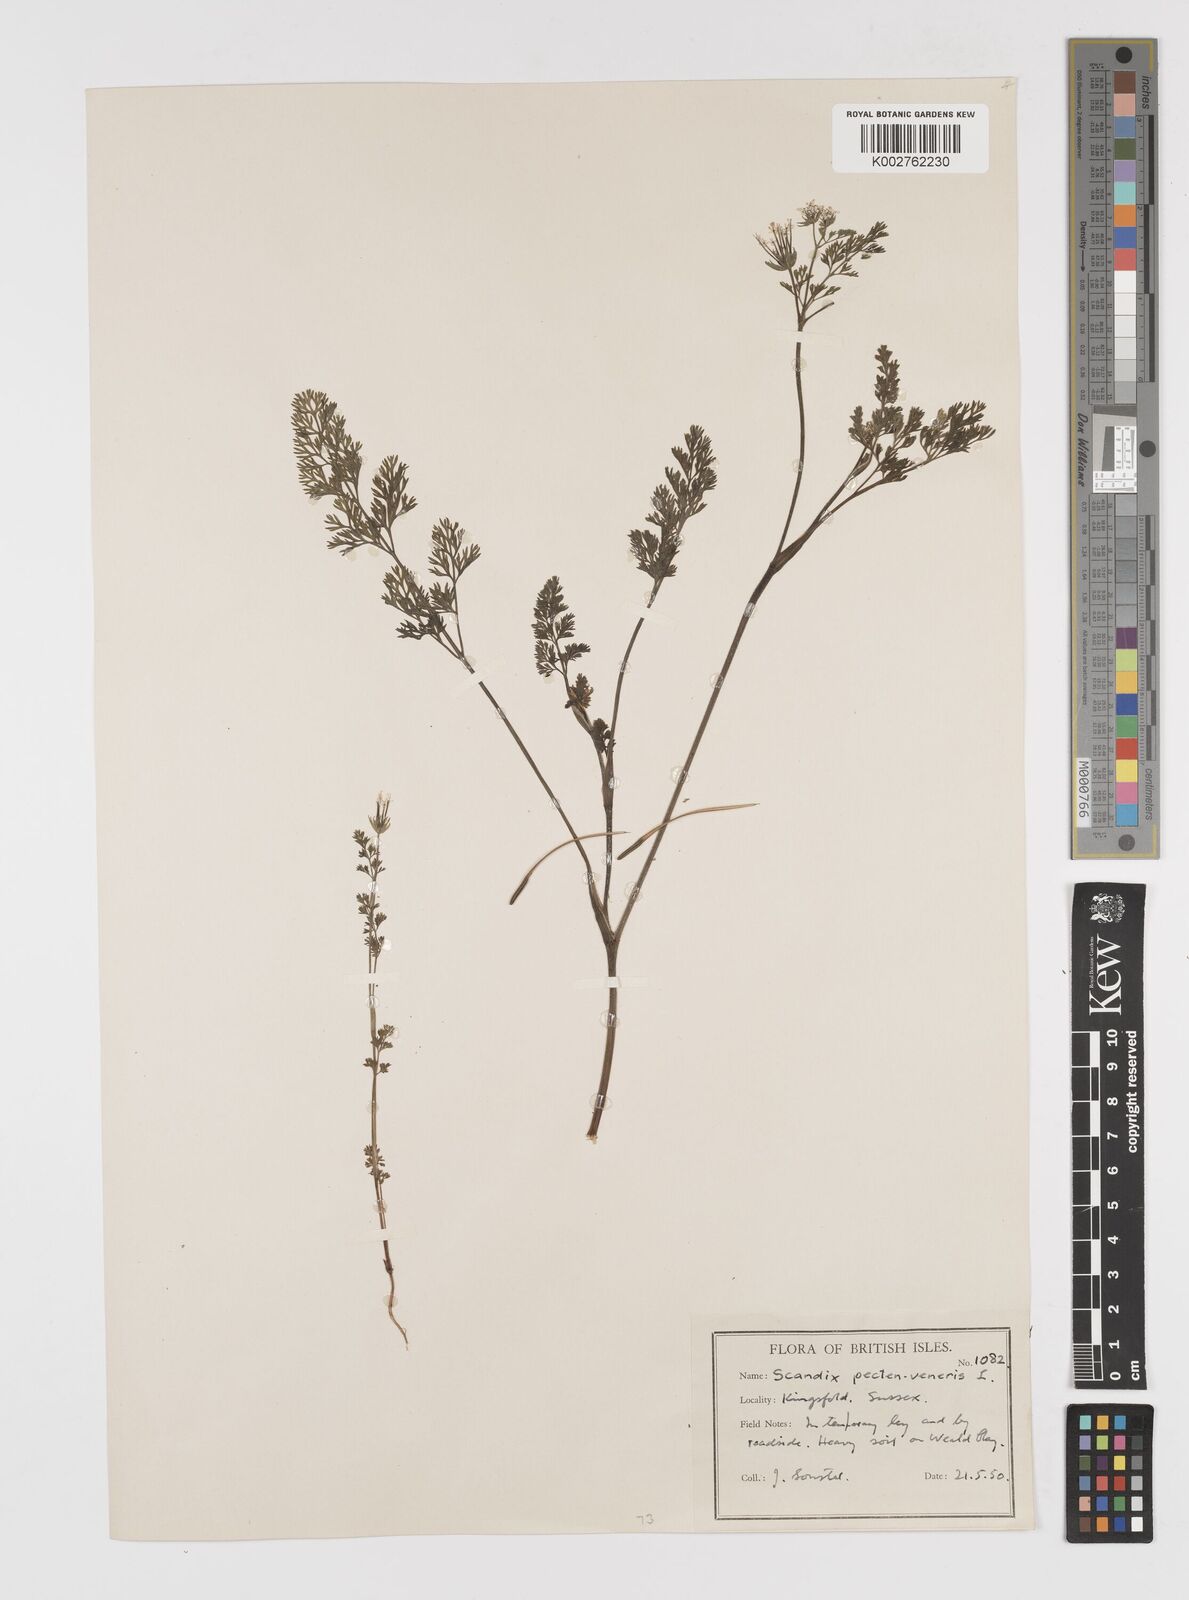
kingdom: Plantae
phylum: Tracheophyta
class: Magnoliopsida
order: Apiales
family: Apiaceae
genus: Scandix
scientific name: Scandix pecten-veneris
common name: Shepherd's-needle
